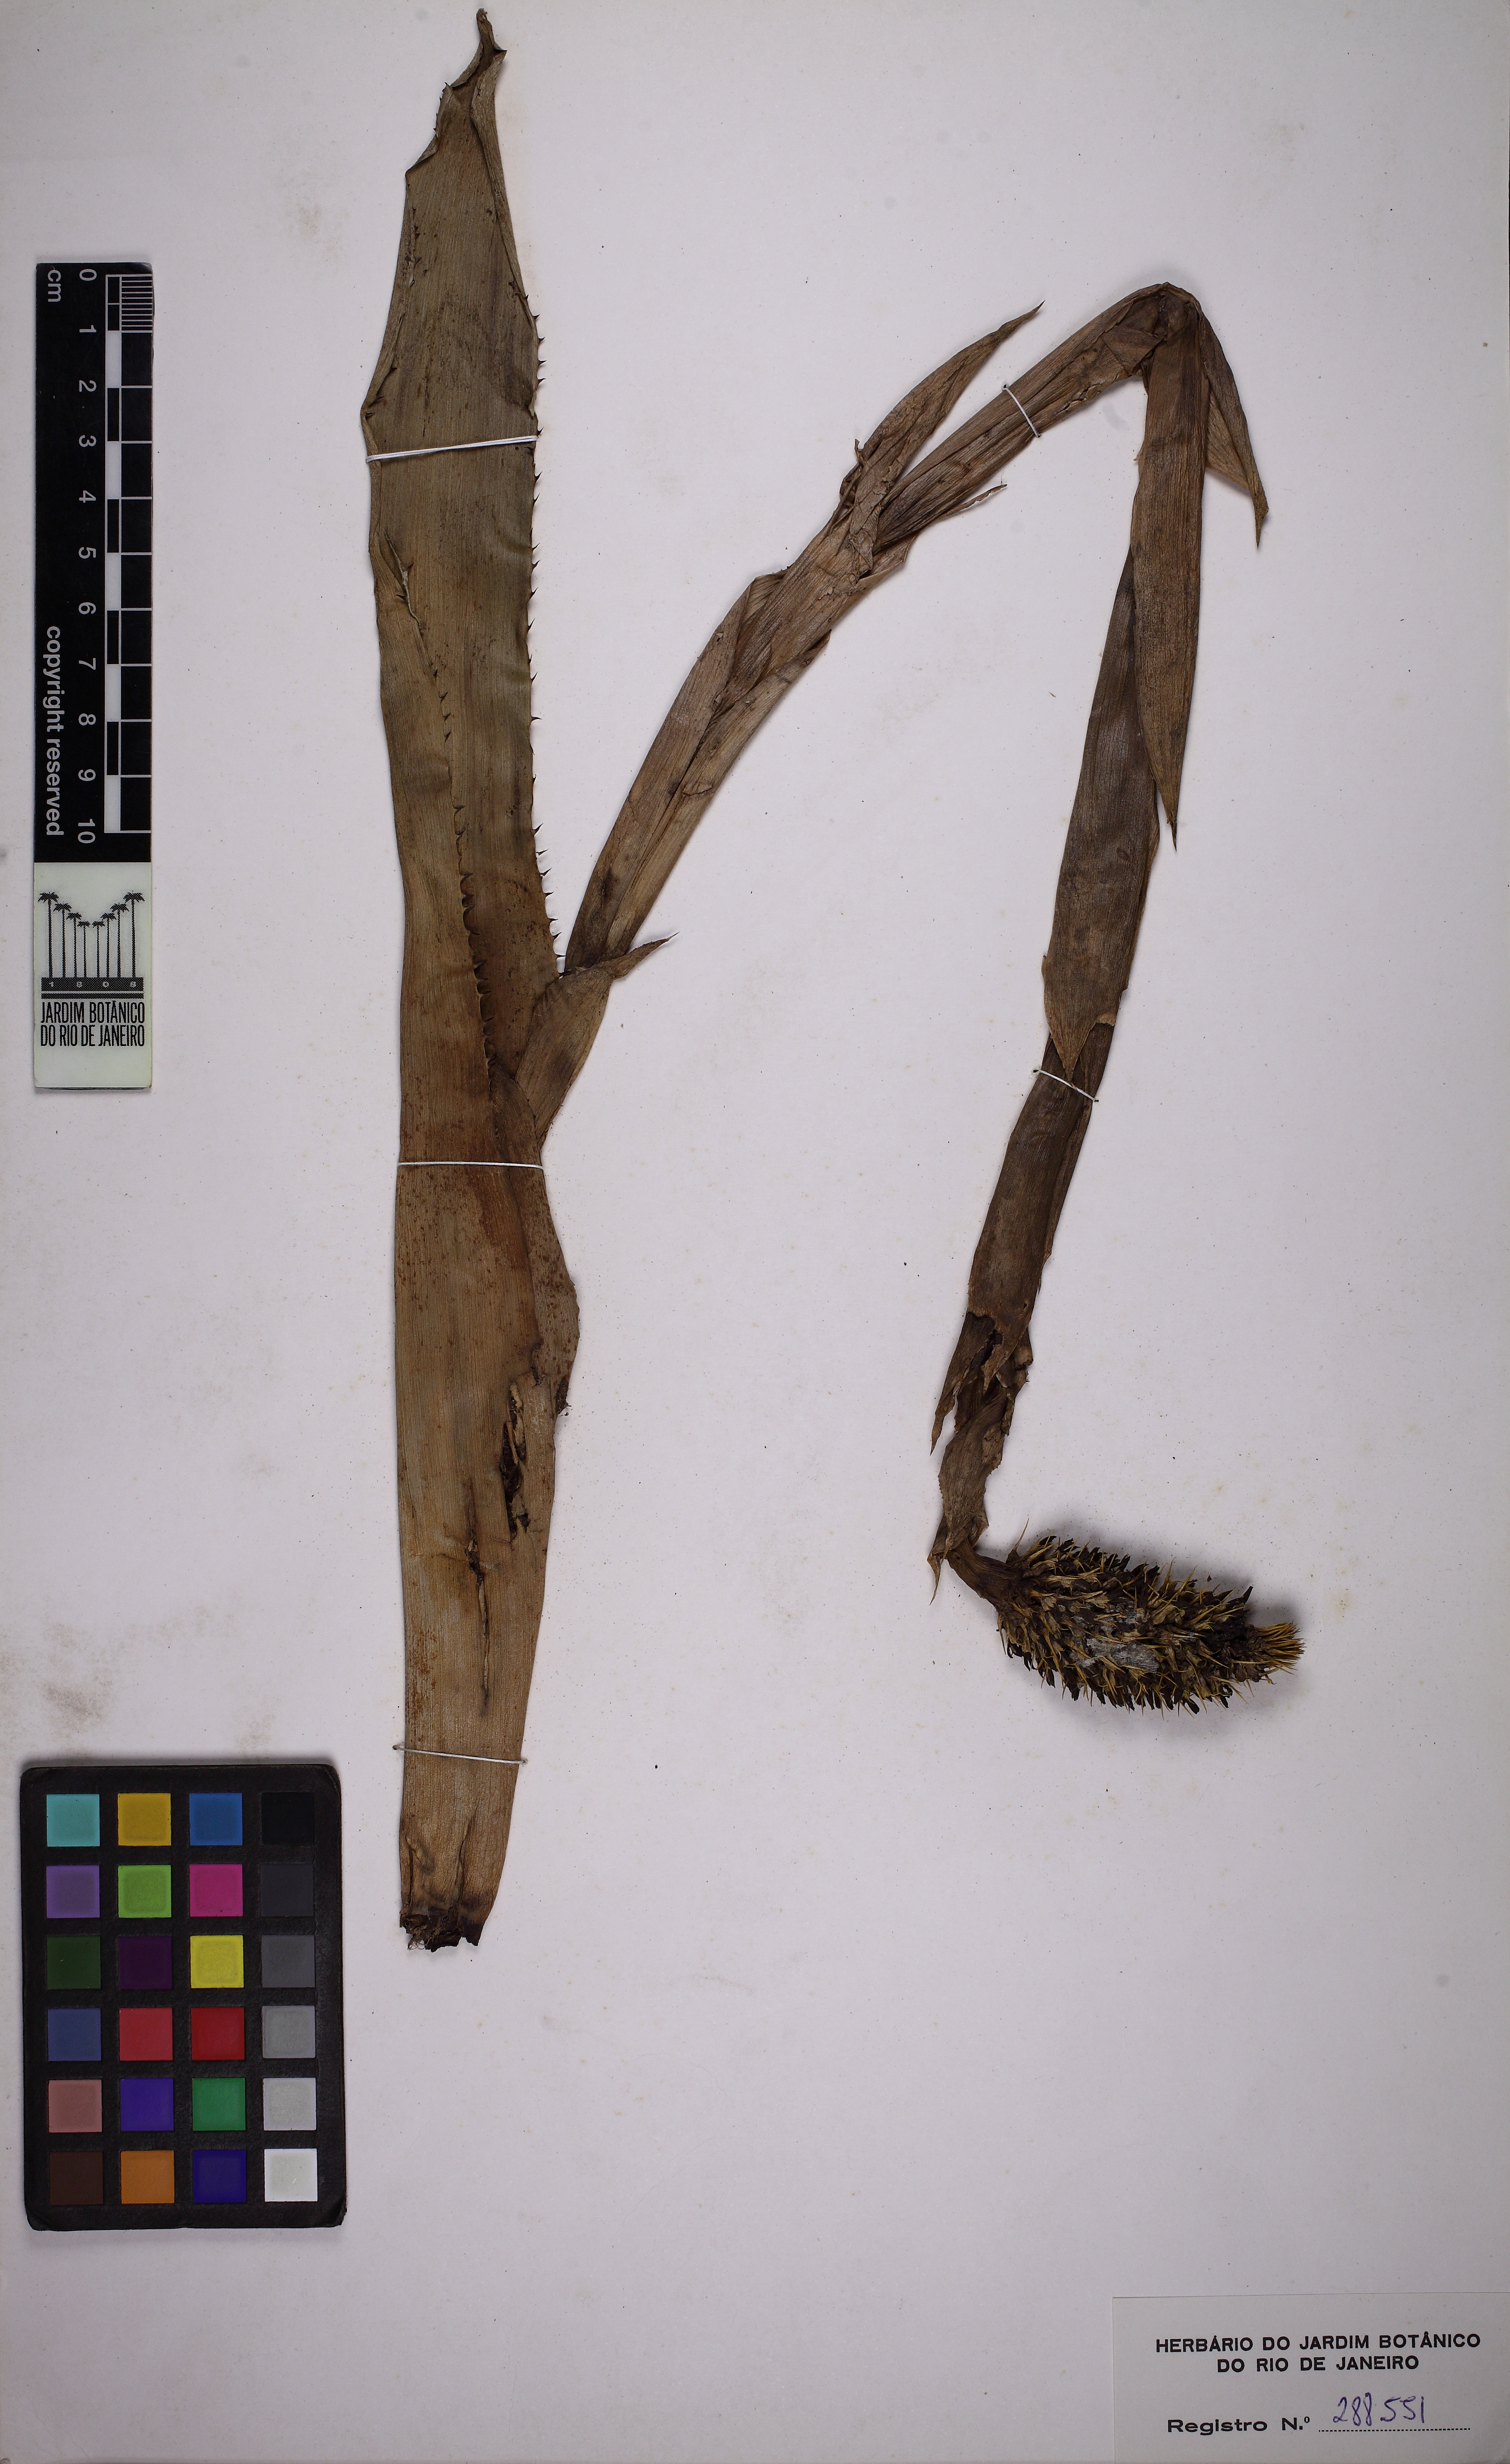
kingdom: Plantae
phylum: Tracheophyta
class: Liliopsida
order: Poales
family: Bromeliaceae
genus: Aechmea
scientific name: Aechmea pineliana
